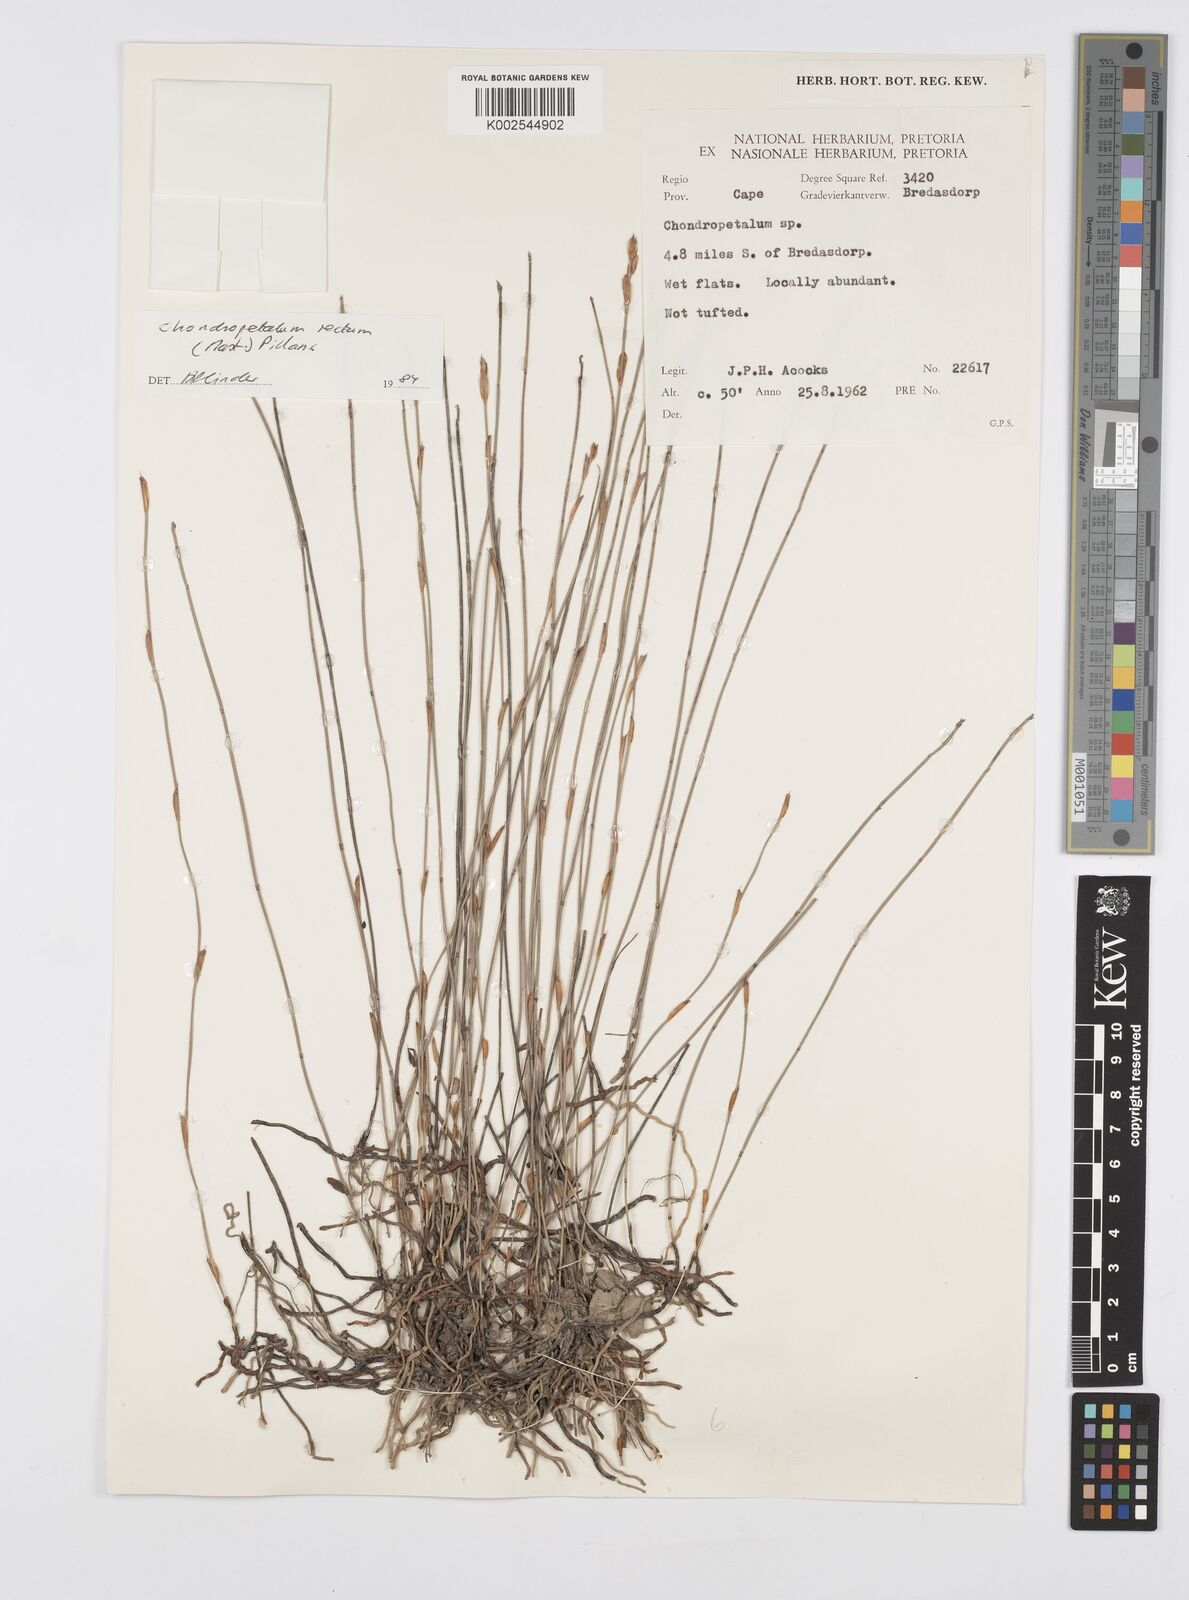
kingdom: Plantae
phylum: Tracheophyta
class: Liliopsida
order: Poales
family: Restionaceae
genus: Elegia
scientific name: Elegia recta
